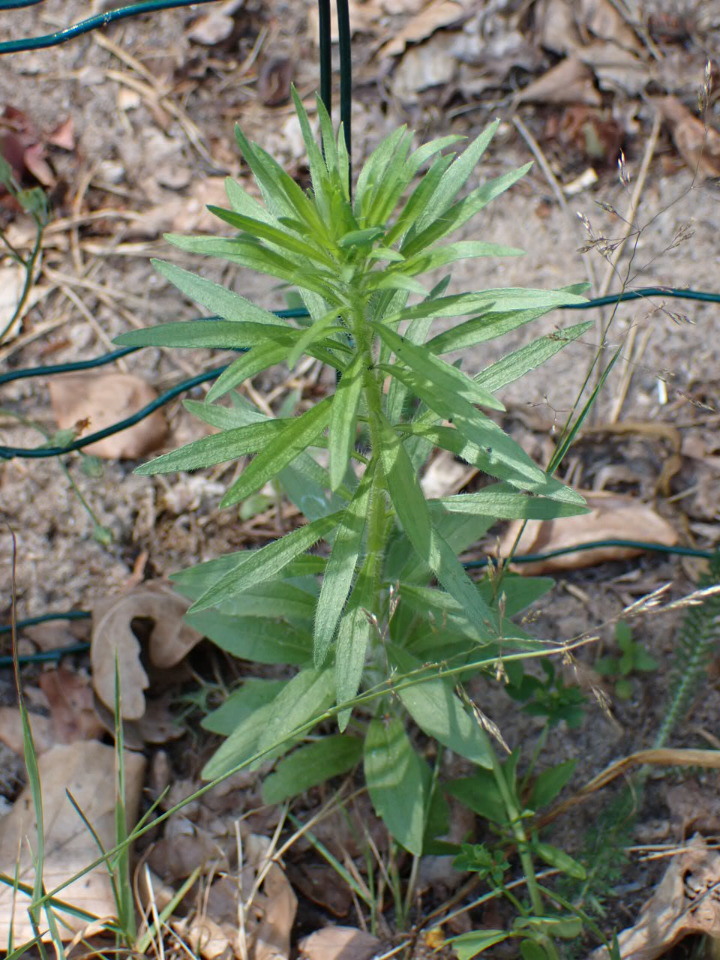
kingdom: Plantae
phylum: Tracheophyta
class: Magnoliopsida
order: Asterales
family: Asteraceae
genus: Erigeron
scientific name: Erigeron canadensis
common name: Kanadisk bakkestjerne
